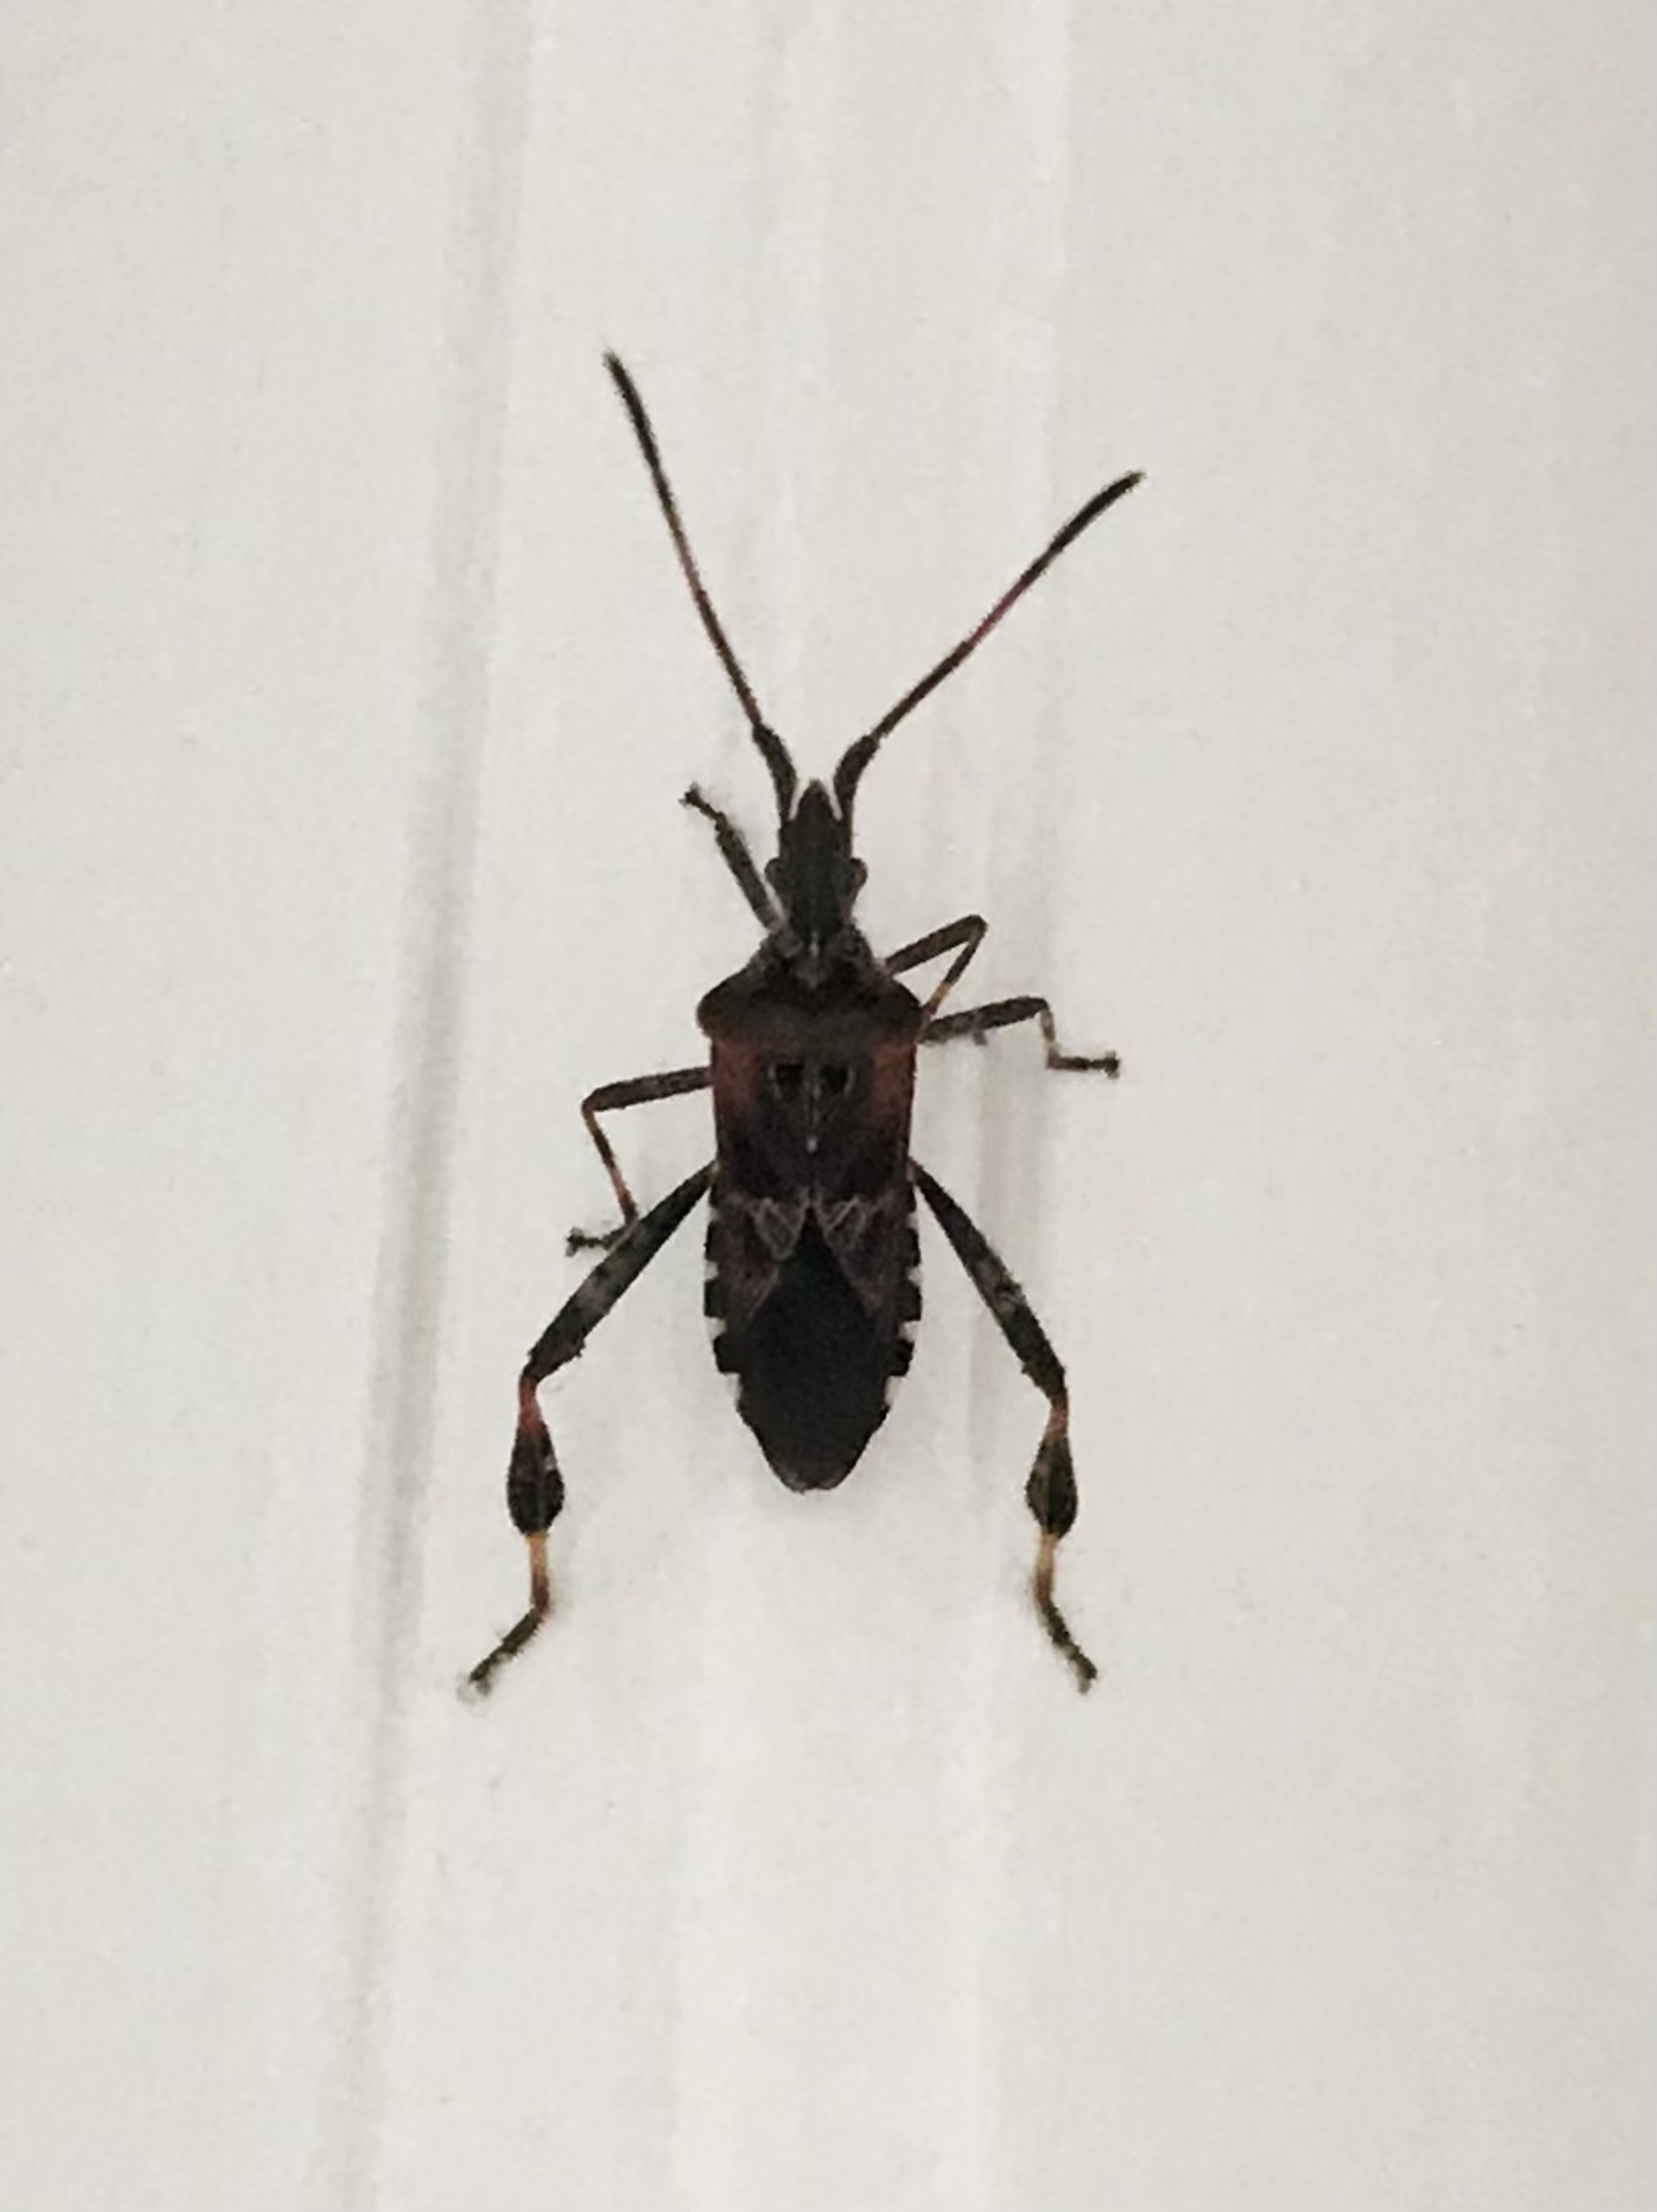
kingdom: Animalia
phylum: Arthropoda
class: Insecta
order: Hemiptera
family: Coreidae
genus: Leptoglossus
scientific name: Leptoglossus occidentalis
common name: Amerikansk fyrretæge
